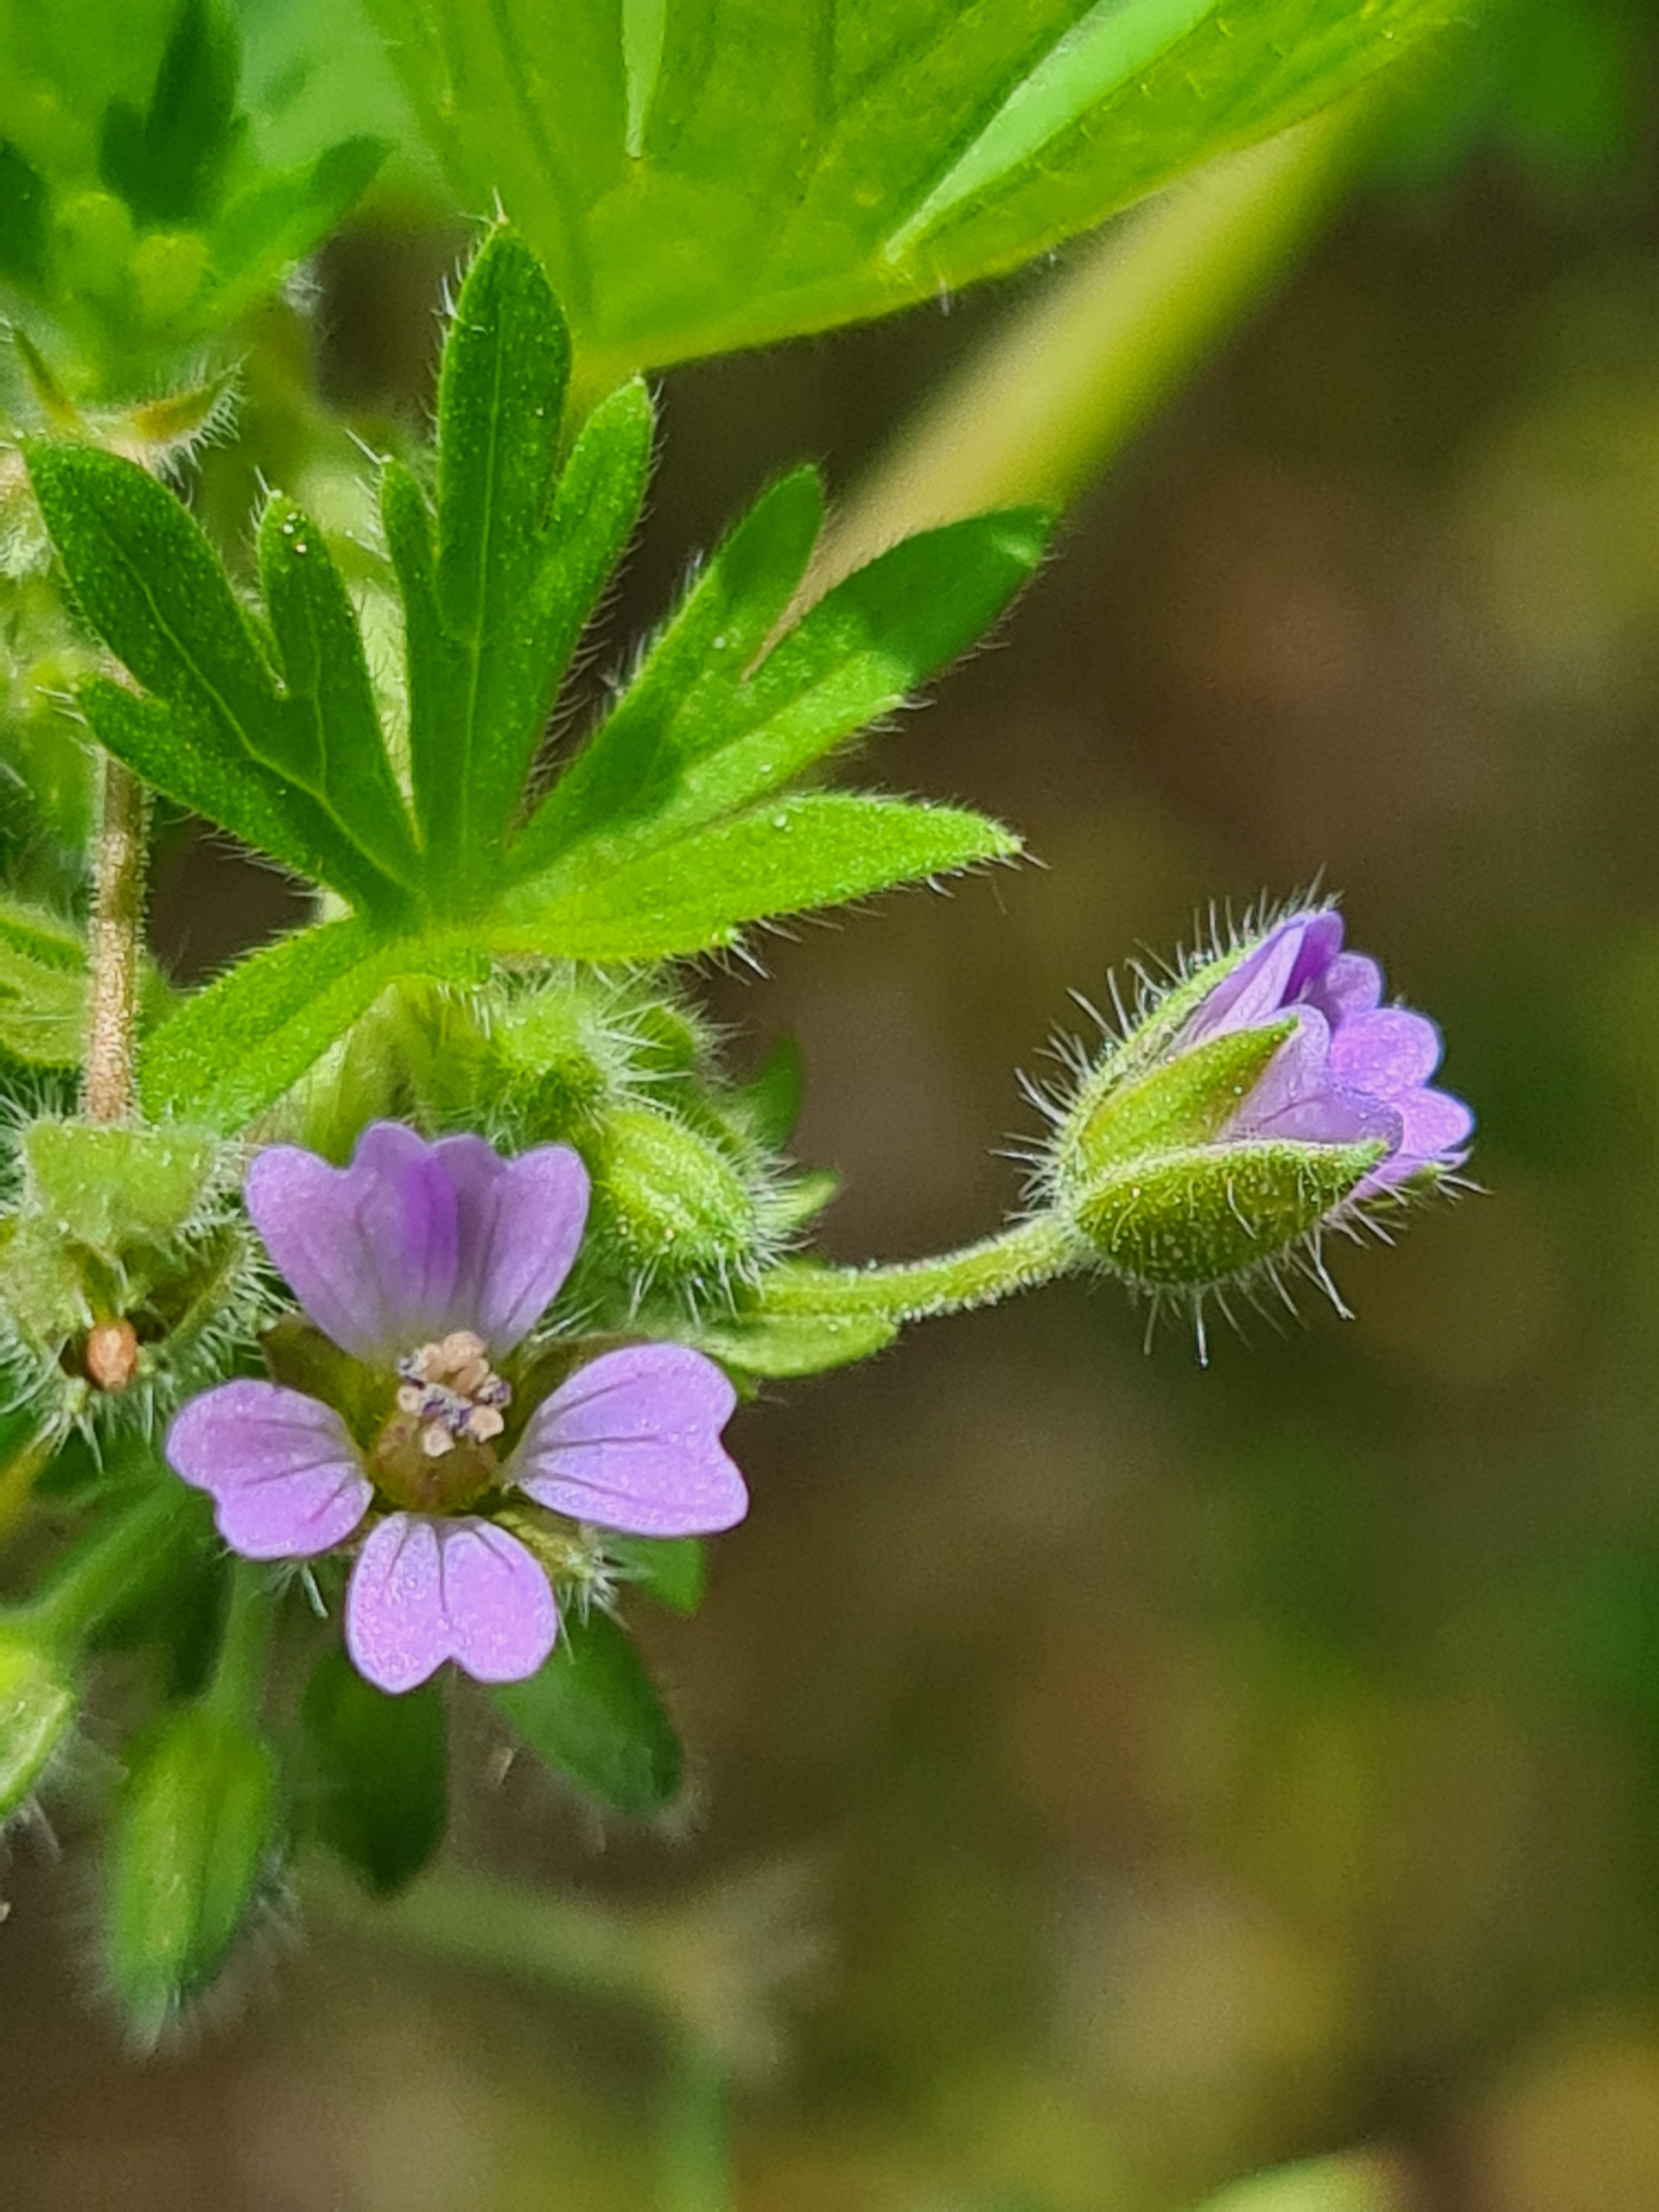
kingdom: Plantae
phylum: Tracheophyta
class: Magnoliopsida
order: Geraniales
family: Geraniaceae
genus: Geranium
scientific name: Geranium pusillum
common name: Liden storkenæb
